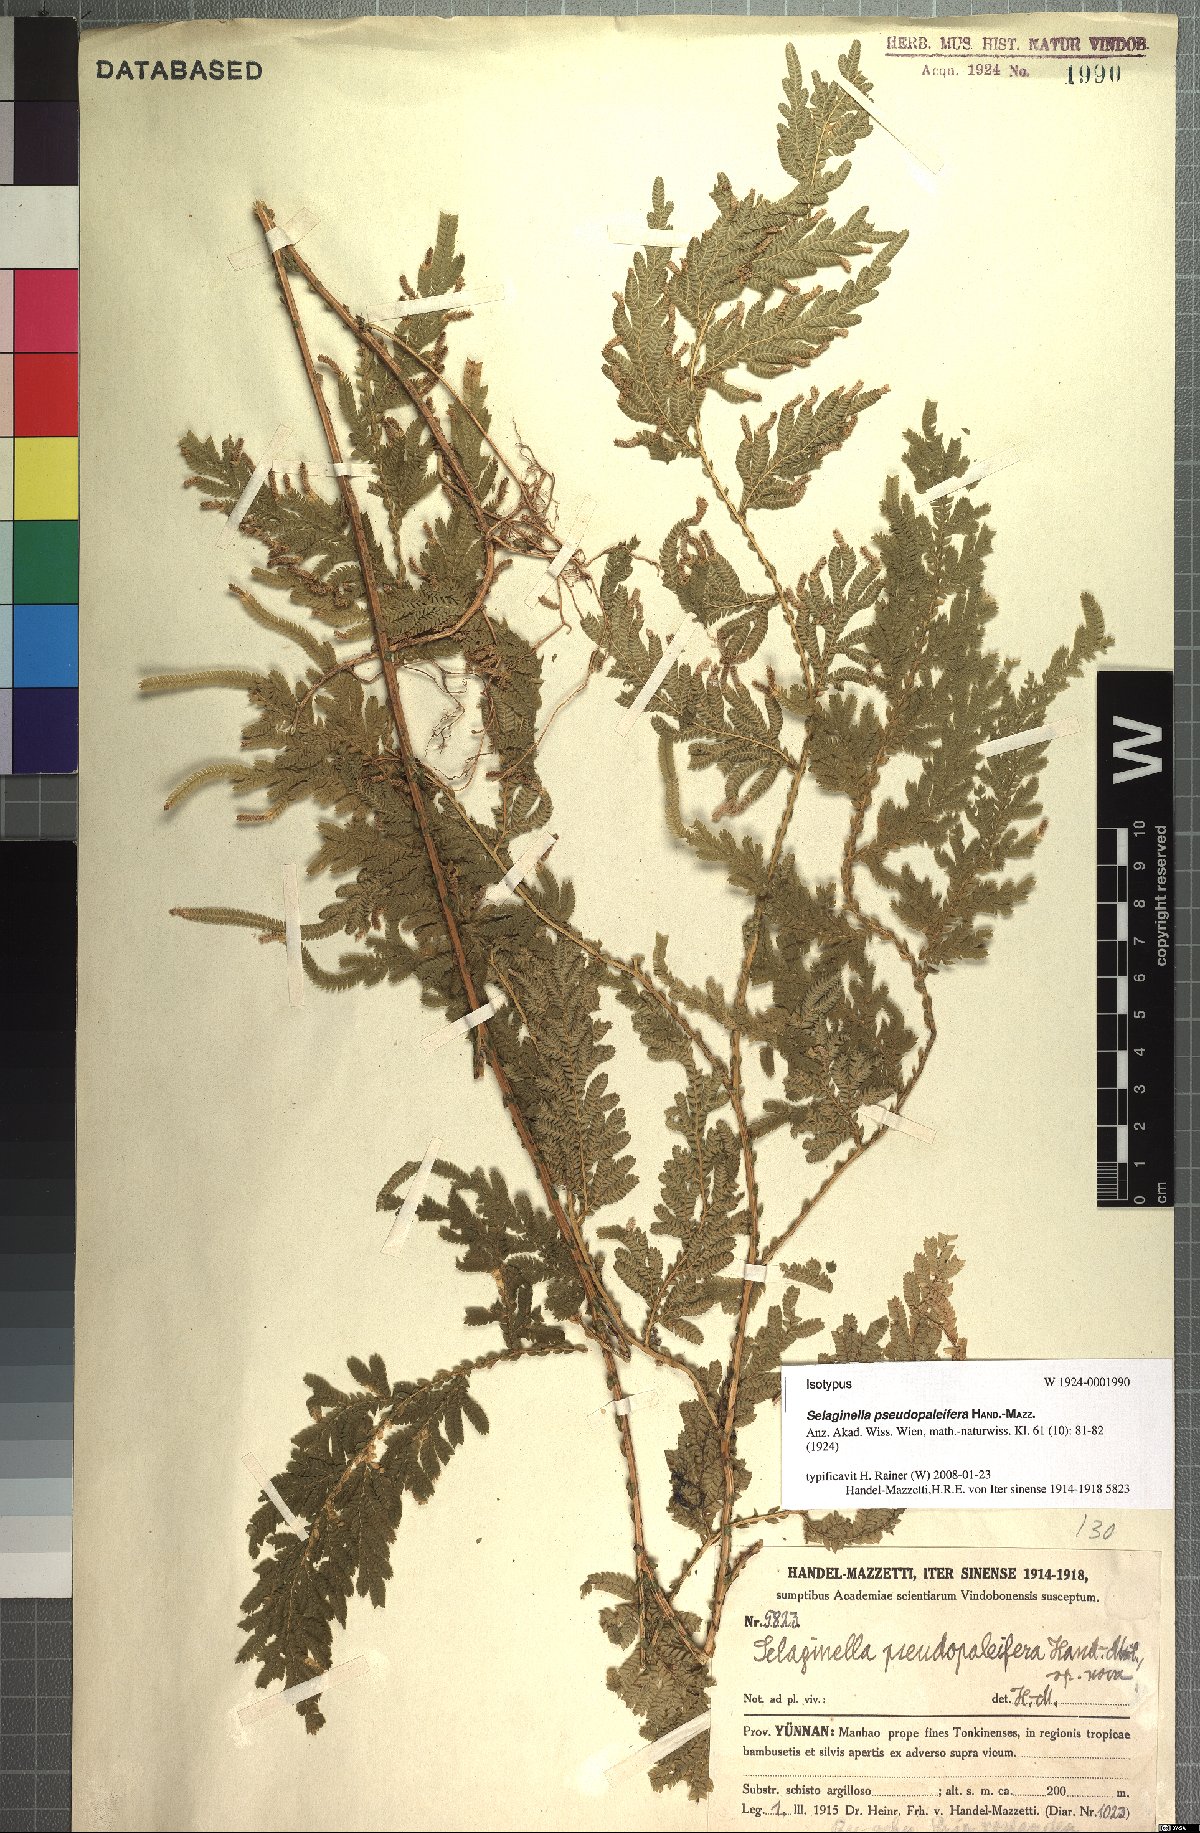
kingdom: Plantae
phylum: Tracheophyta
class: Lycopodiopsida
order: Selaginellales
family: Selaginellaceae
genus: Selaginella
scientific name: Selaginella pseudopaleifera
